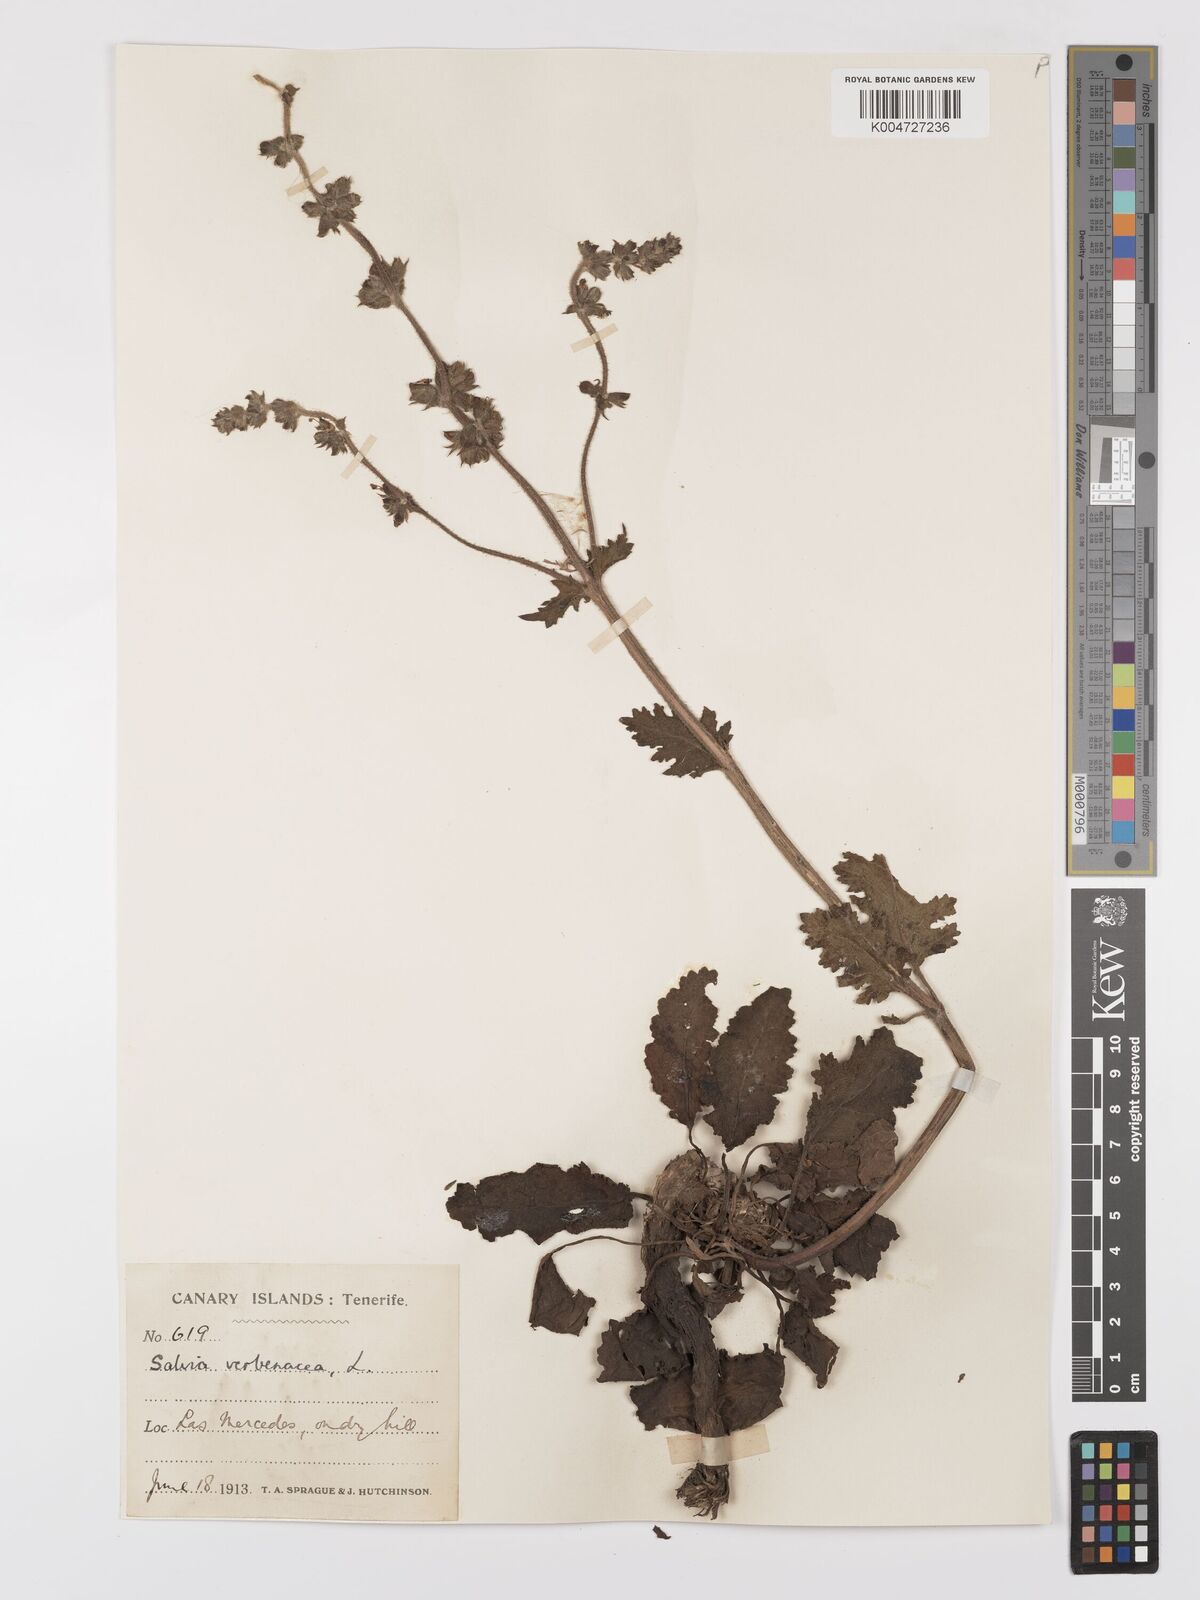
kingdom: Plantae
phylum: Tracheophyta
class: Magnoliopsida
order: Lamiales
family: Lamiaceae
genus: Salvia
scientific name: Salvia verbenaca
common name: Wild clary
